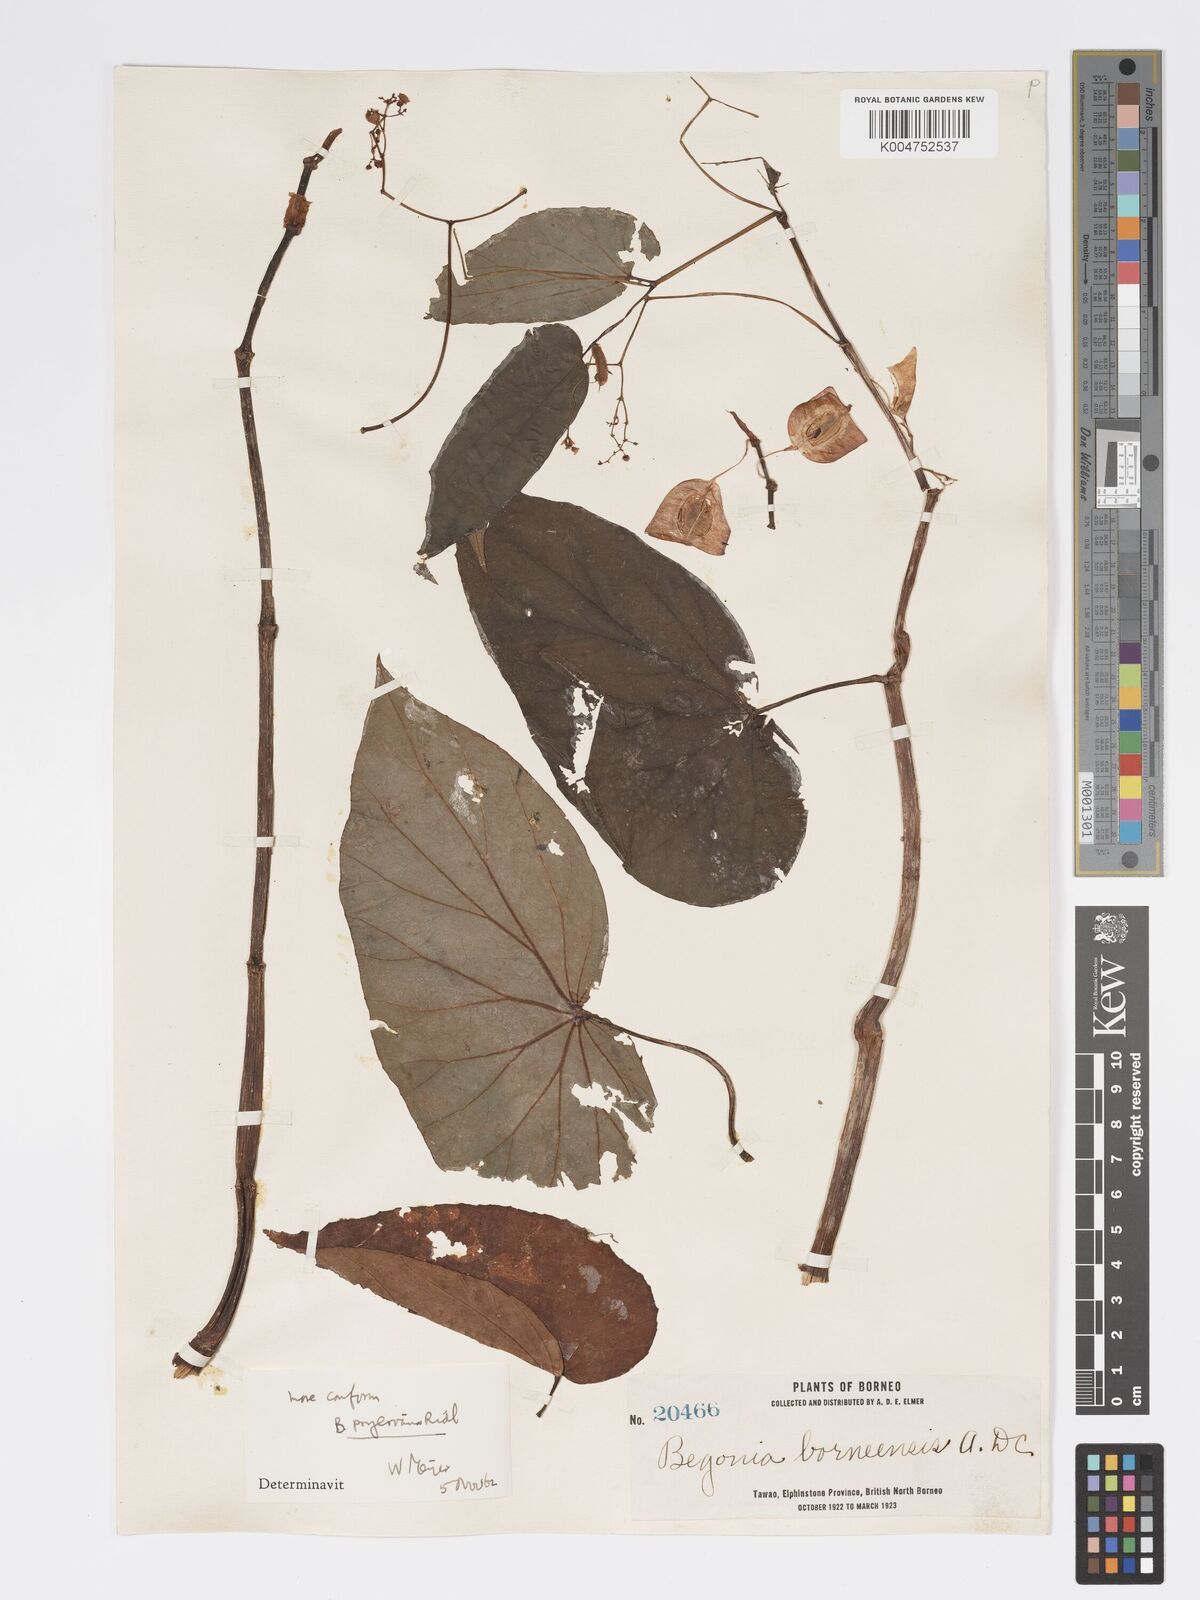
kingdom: Plantae
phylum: Tracheophyta
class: Magnoliopsida
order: Cucurbitales
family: Begoniaceae
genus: Begonia
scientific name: Begonia pryeriana
